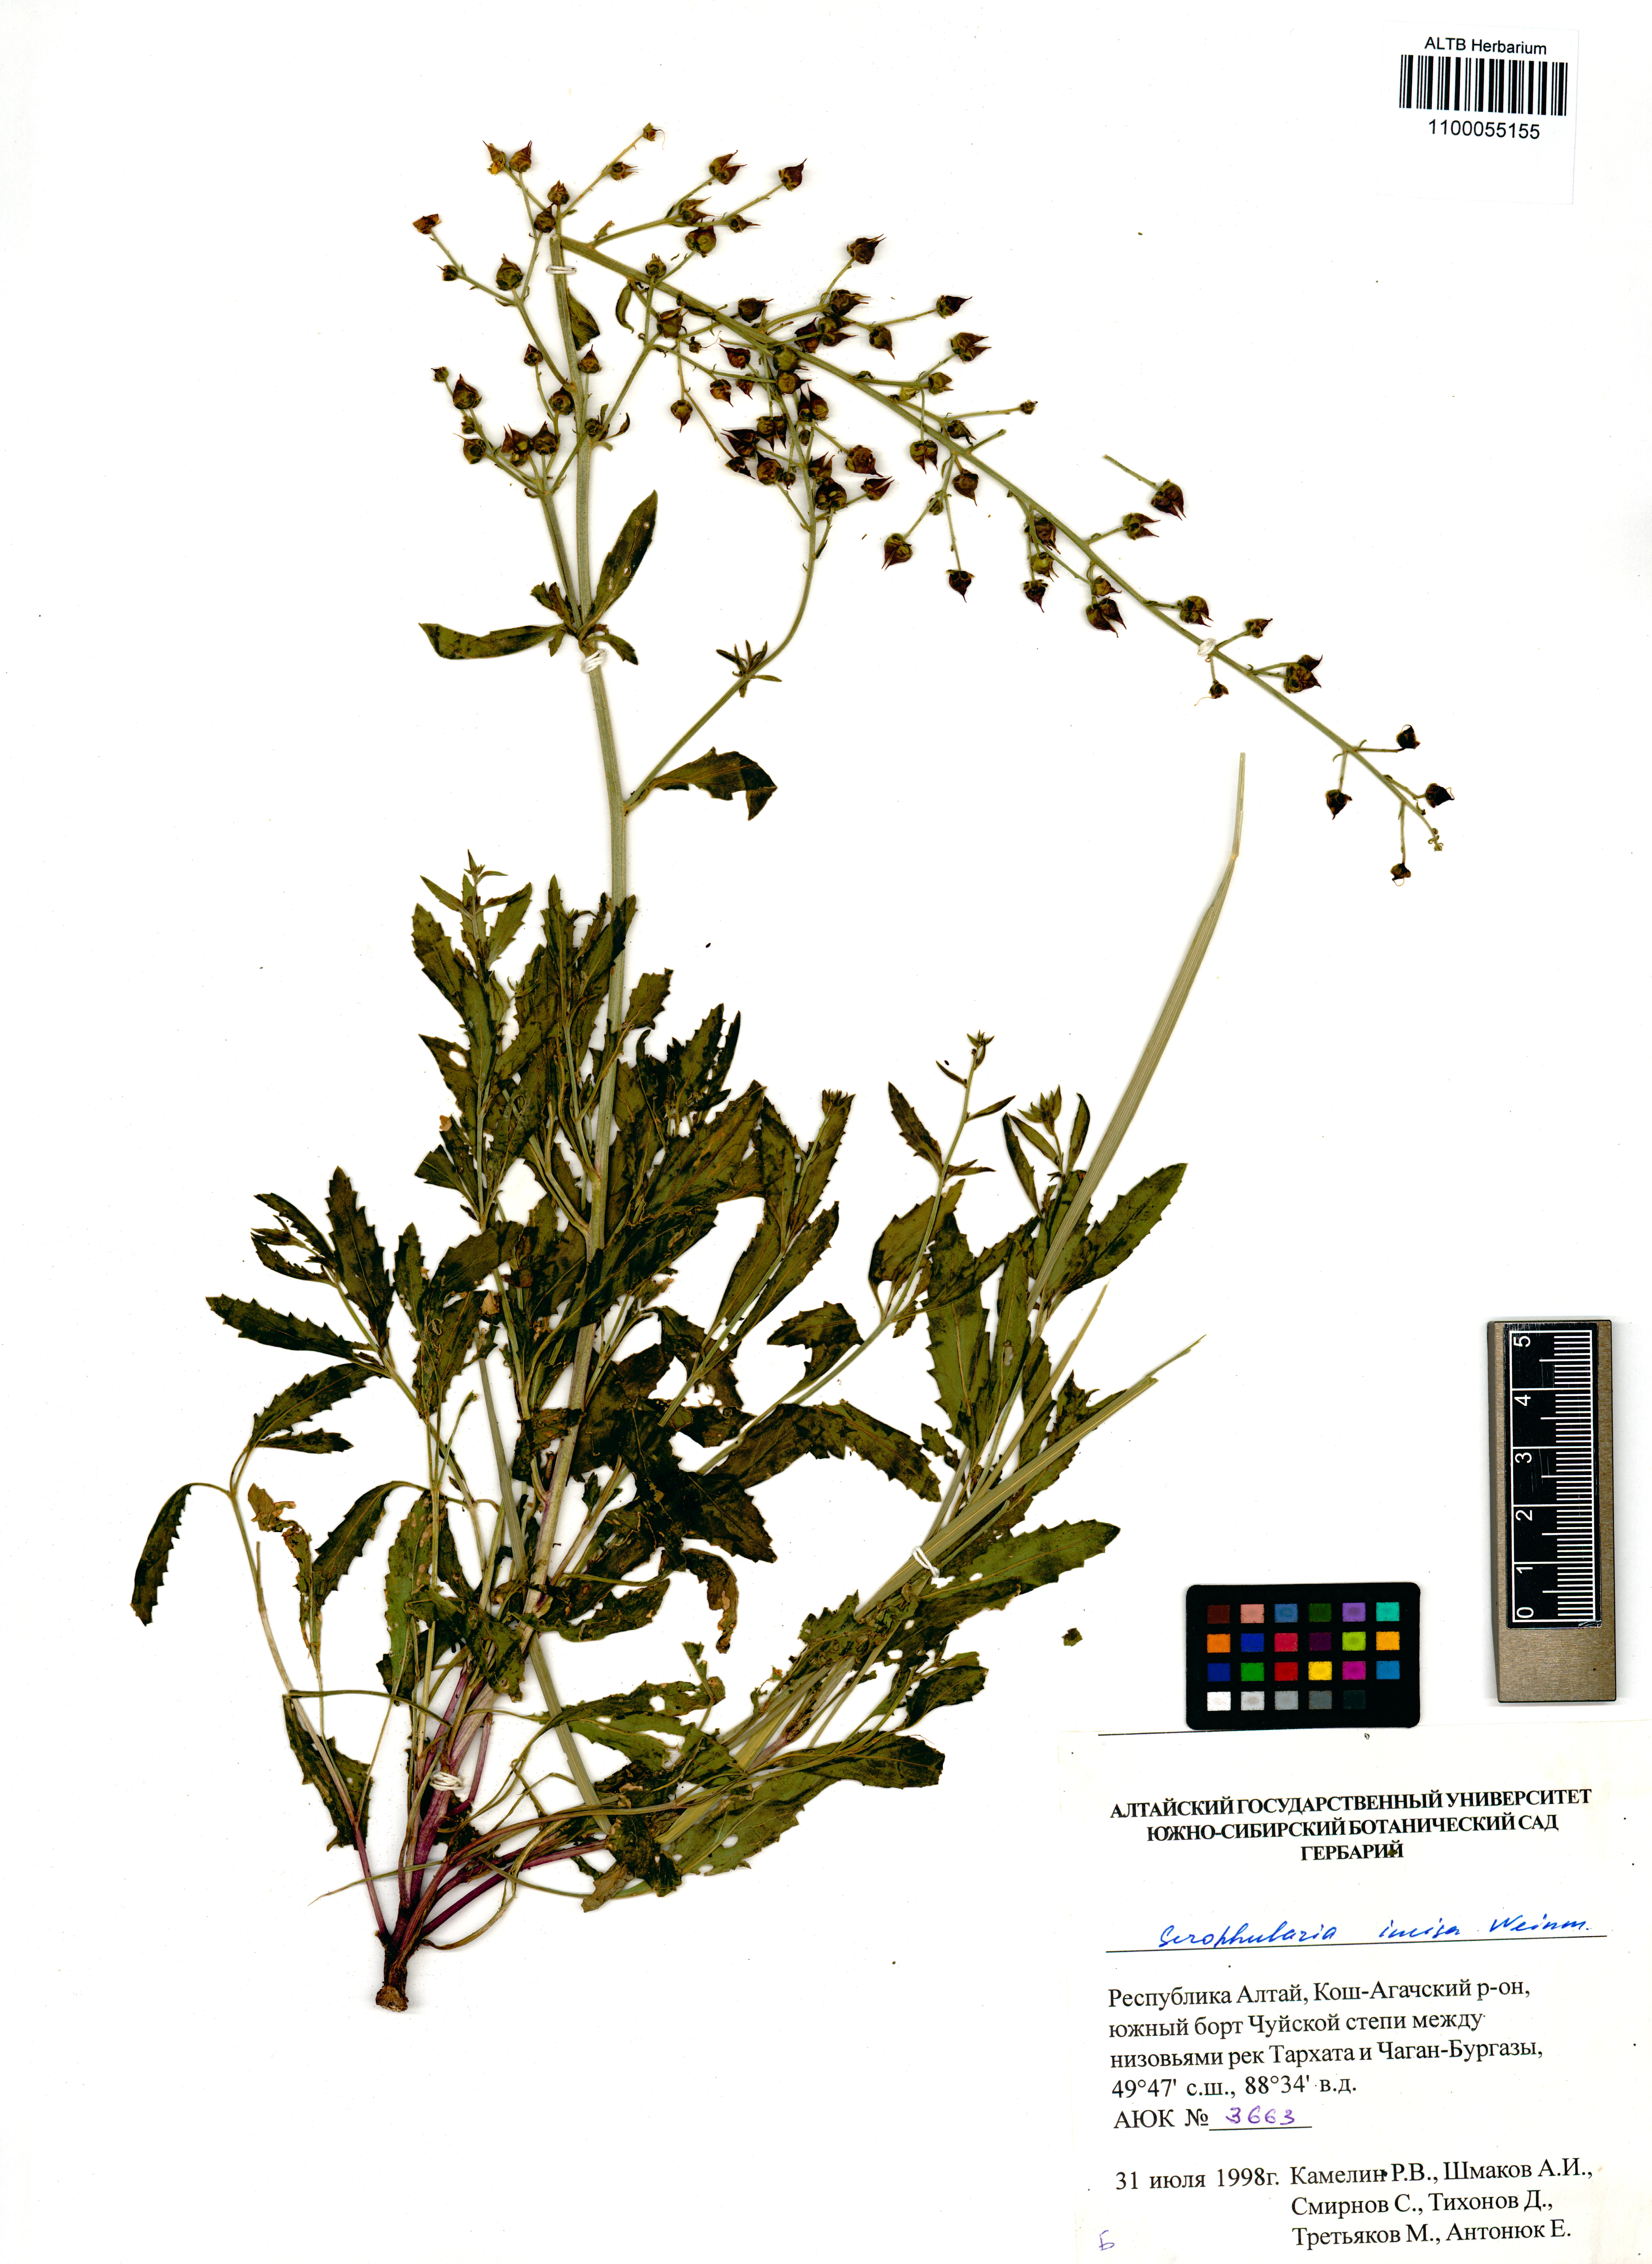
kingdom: Plantae
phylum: Tracheophyta
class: Magnoliopsida
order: Lamiales
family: Scrophulariaceae
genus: Scrophularia
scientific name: Scrophularia incisa
